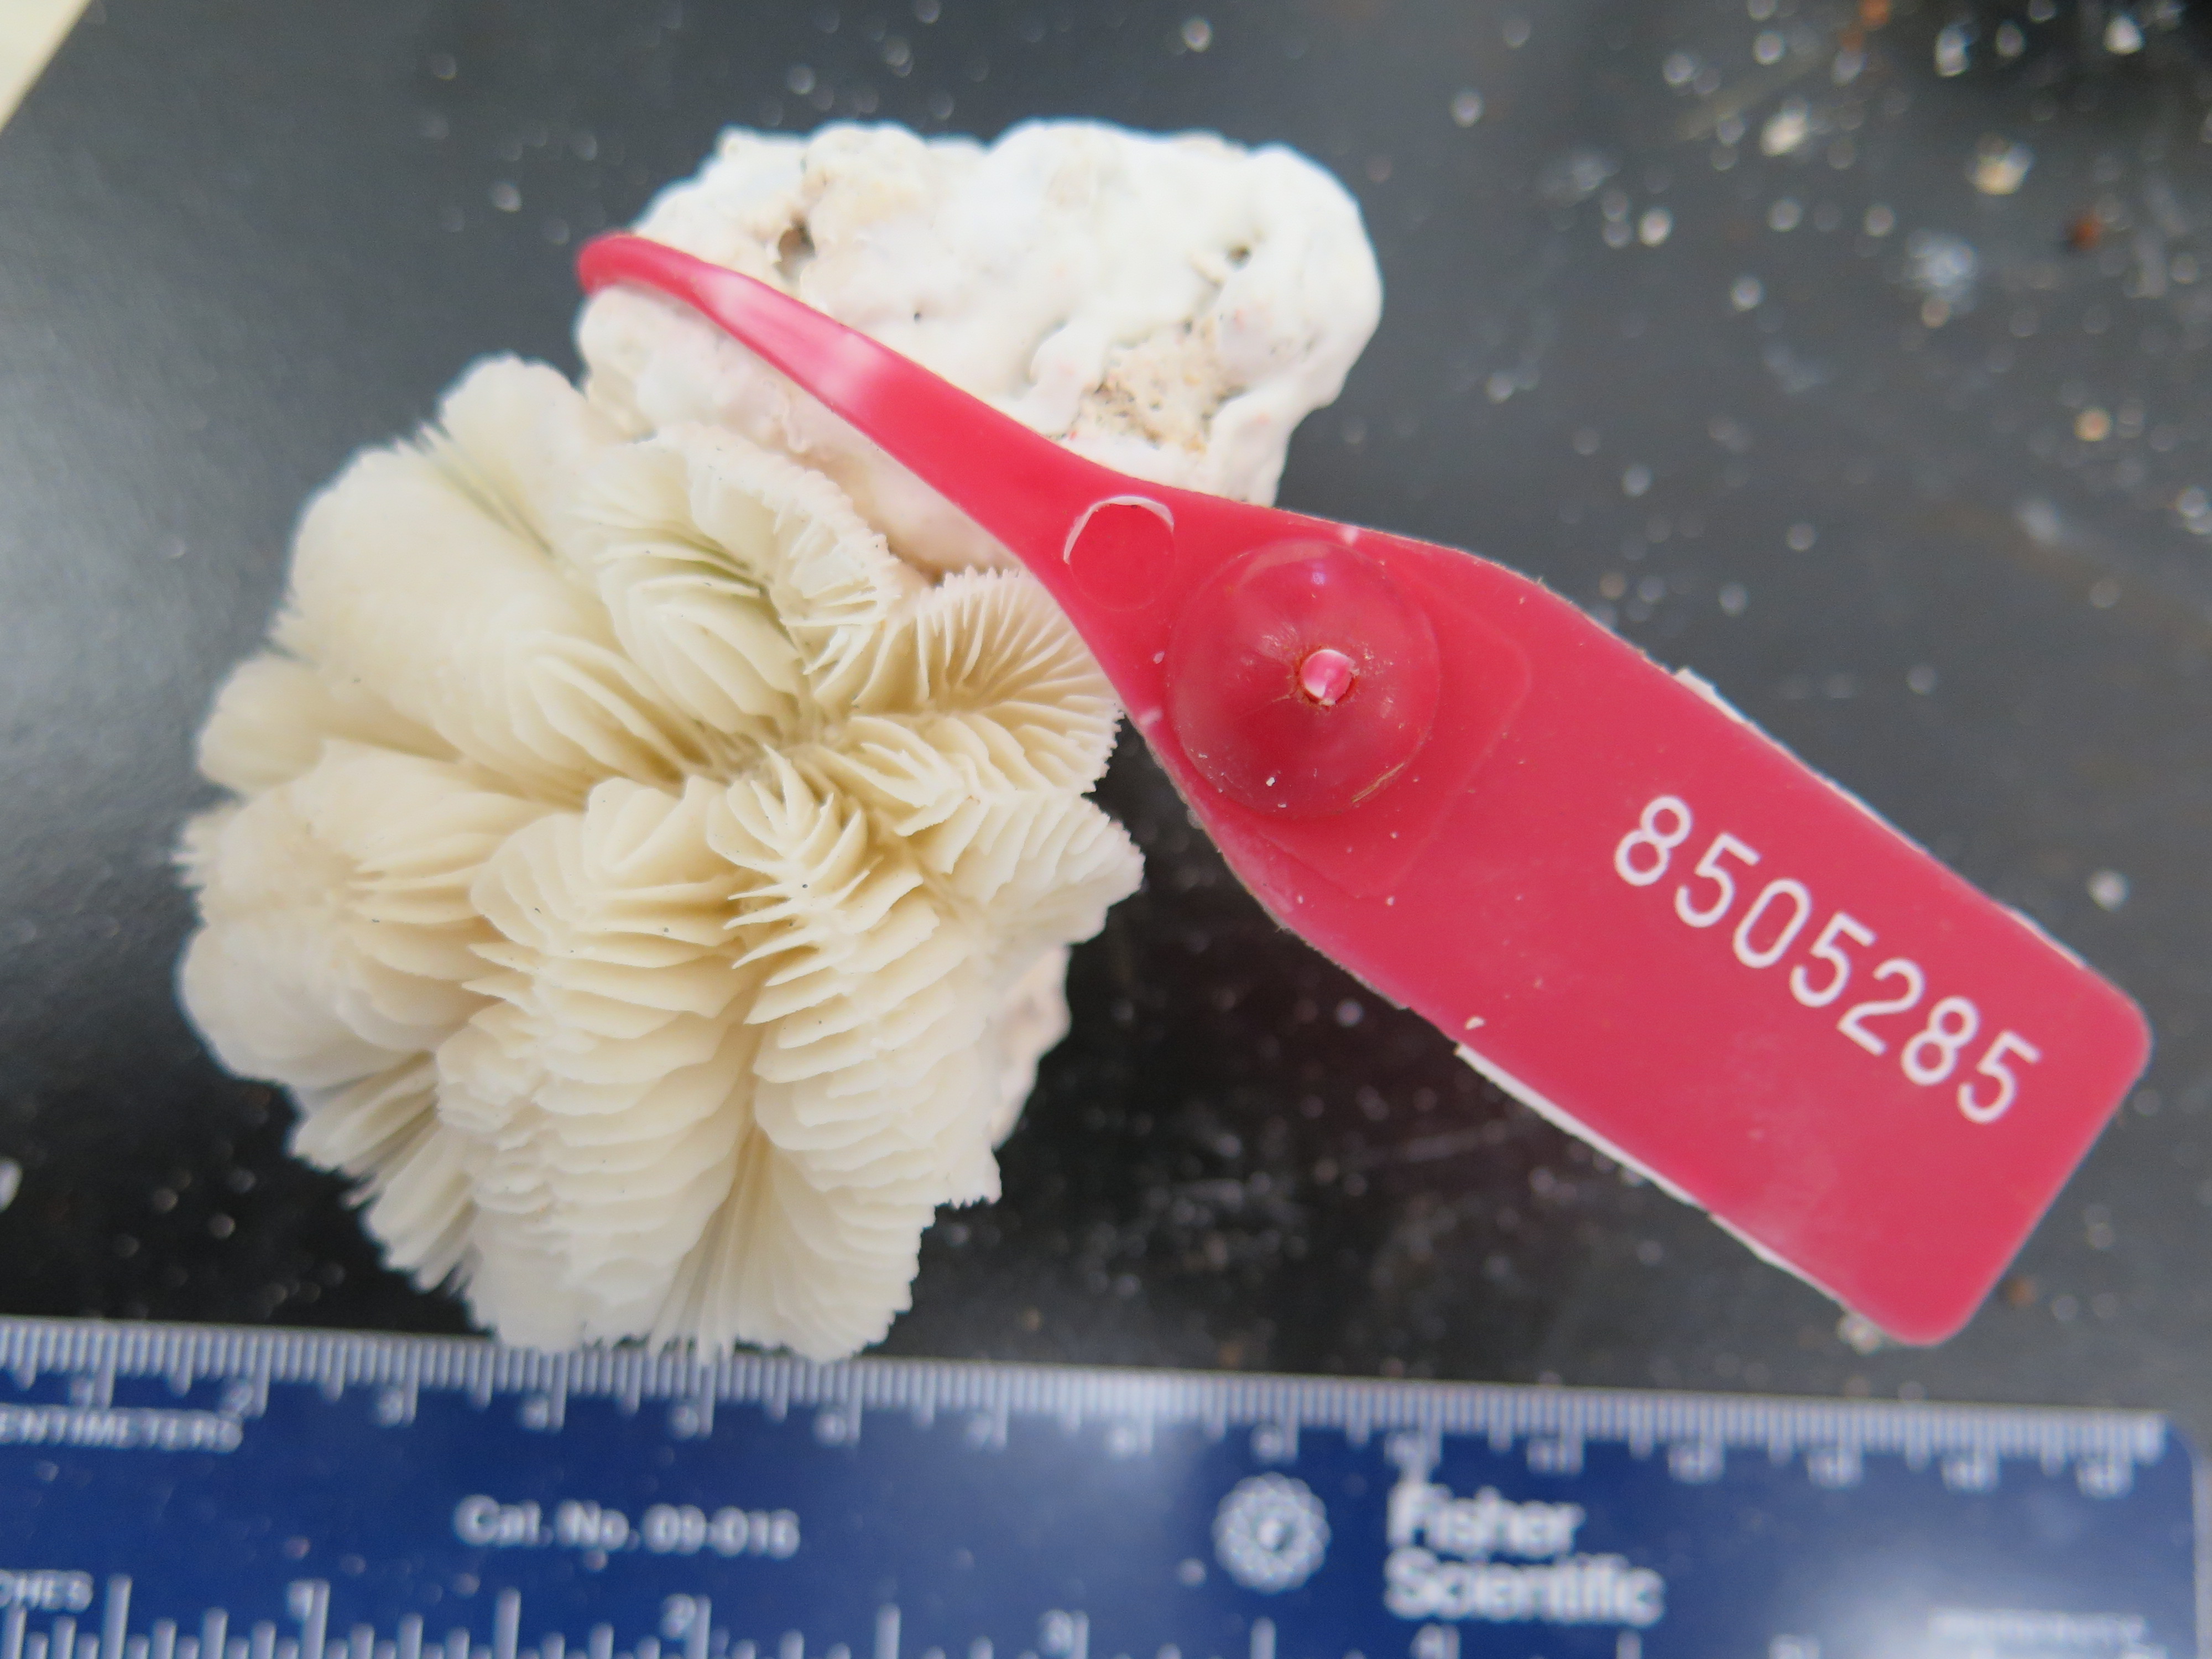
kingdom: Animalia
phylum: Cnidaria
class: Anthozoa
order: Scleractinia
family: Meandrinidae
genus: Meandrina
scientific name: Meandrina meandrites
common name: Maze coral
